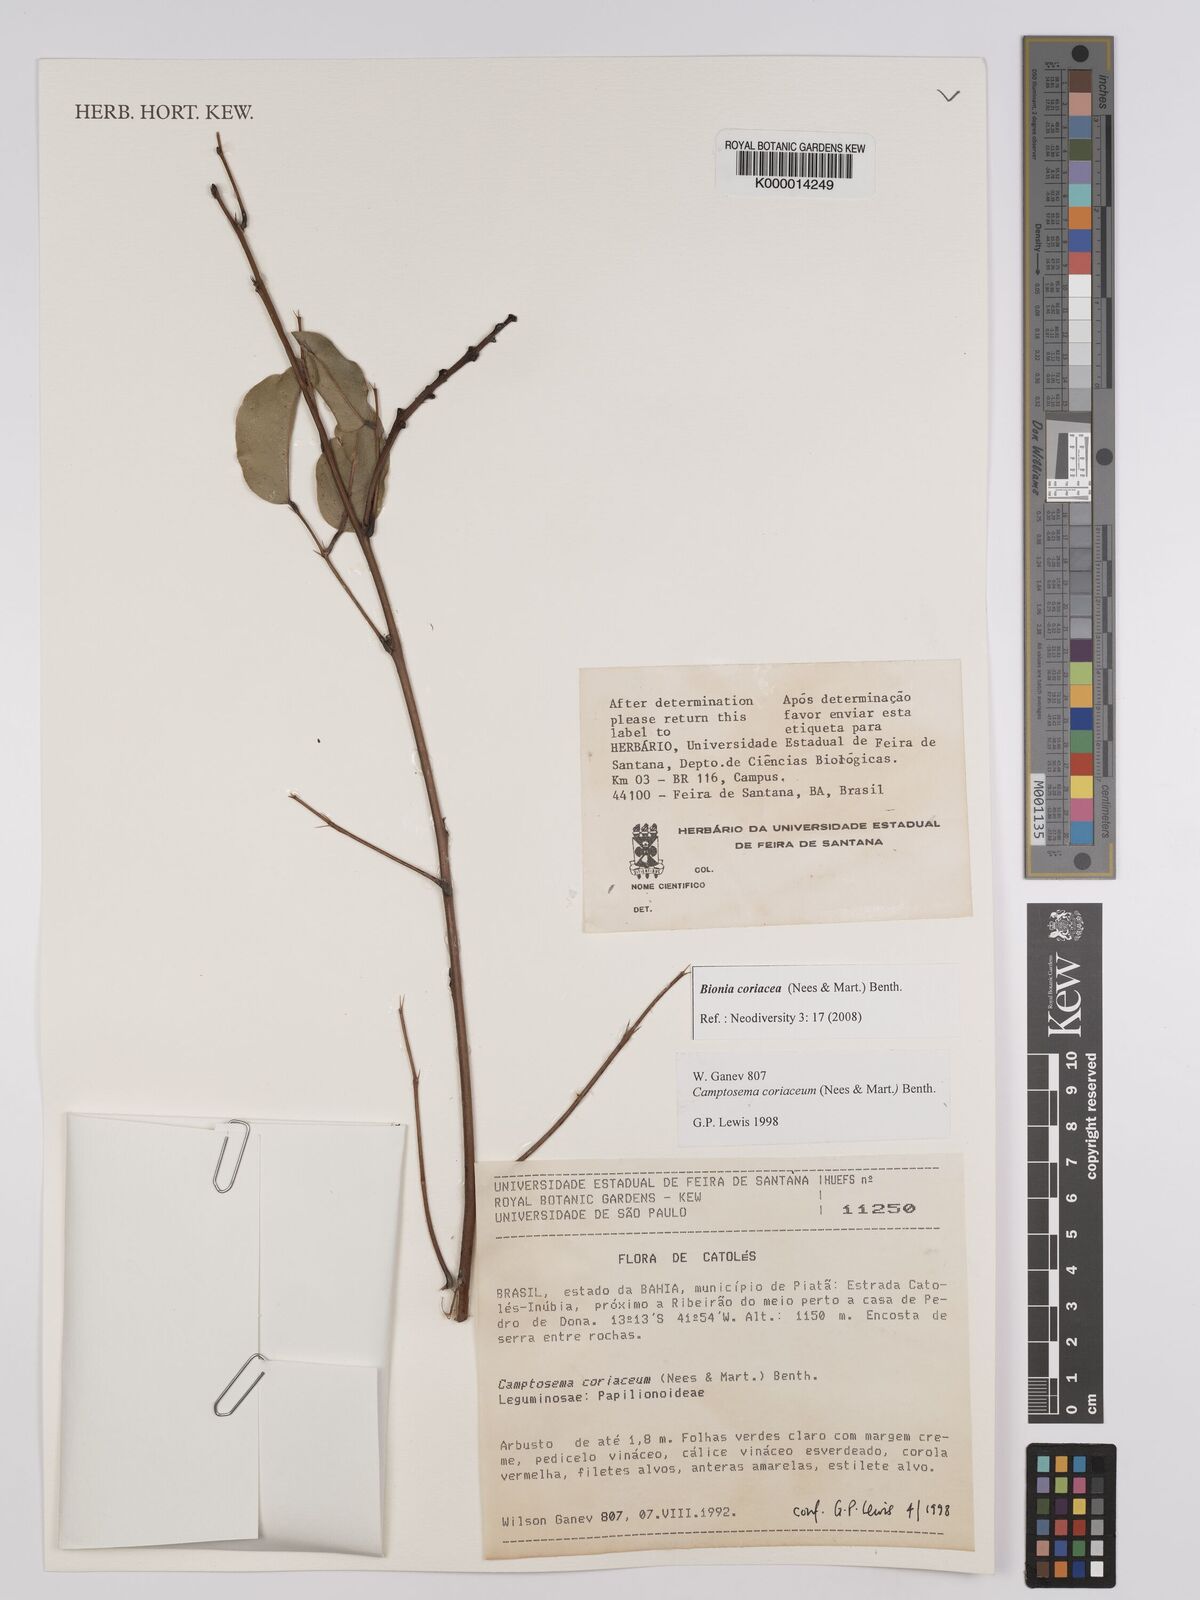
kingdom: Plantae
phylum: Tracheophyta
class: Magnoliopsida
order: Fabales
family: Fabaceae
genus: Camptosema
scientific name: Camptosema coriaceum
